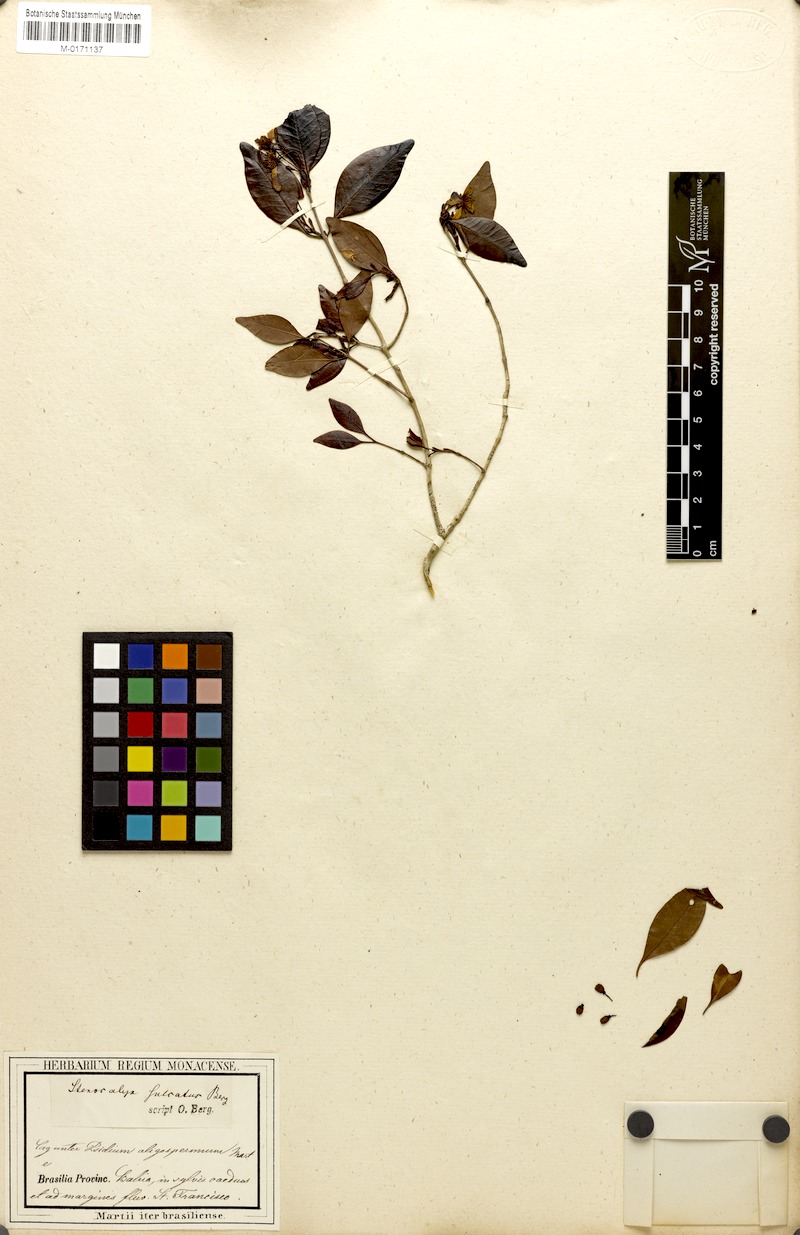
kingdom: Plantae
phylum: Tracheophyta
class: Magnoliopsida
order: Myrtales
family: Myrtaceae
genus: Eugenia
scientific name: Eugenia sulcata
